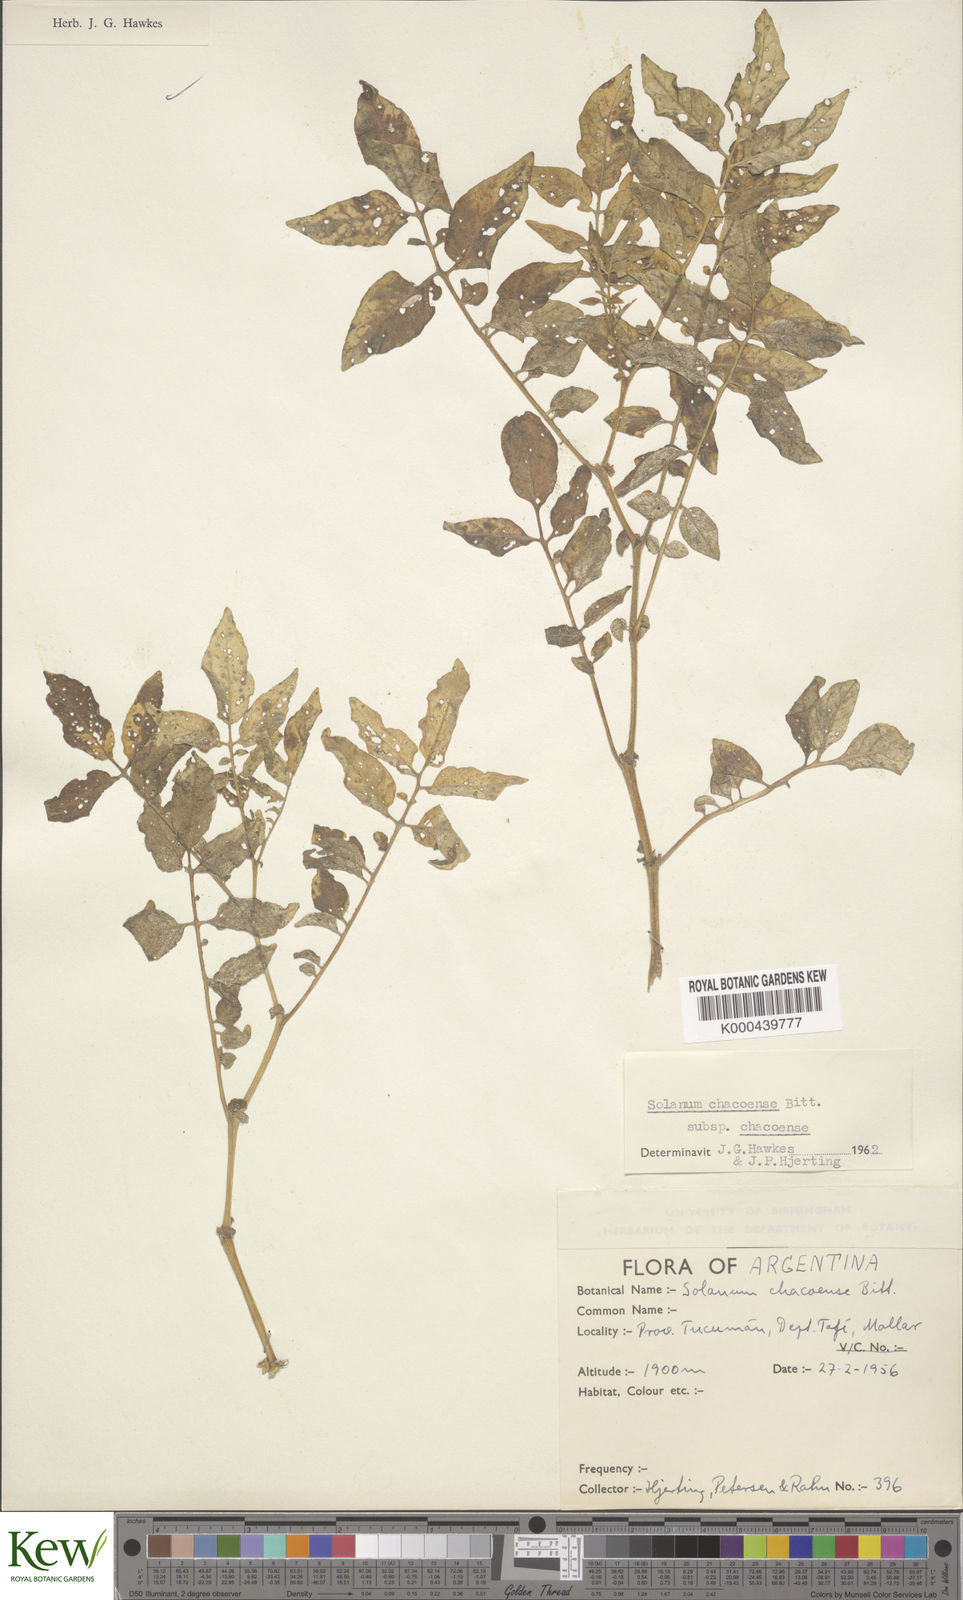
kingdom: Plantae
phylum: Tracheophyta
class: Magnoliopsida
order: Solanales
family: Solanaceae
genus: Solanum
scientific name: Solanum chacoense
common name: Chaco potato
